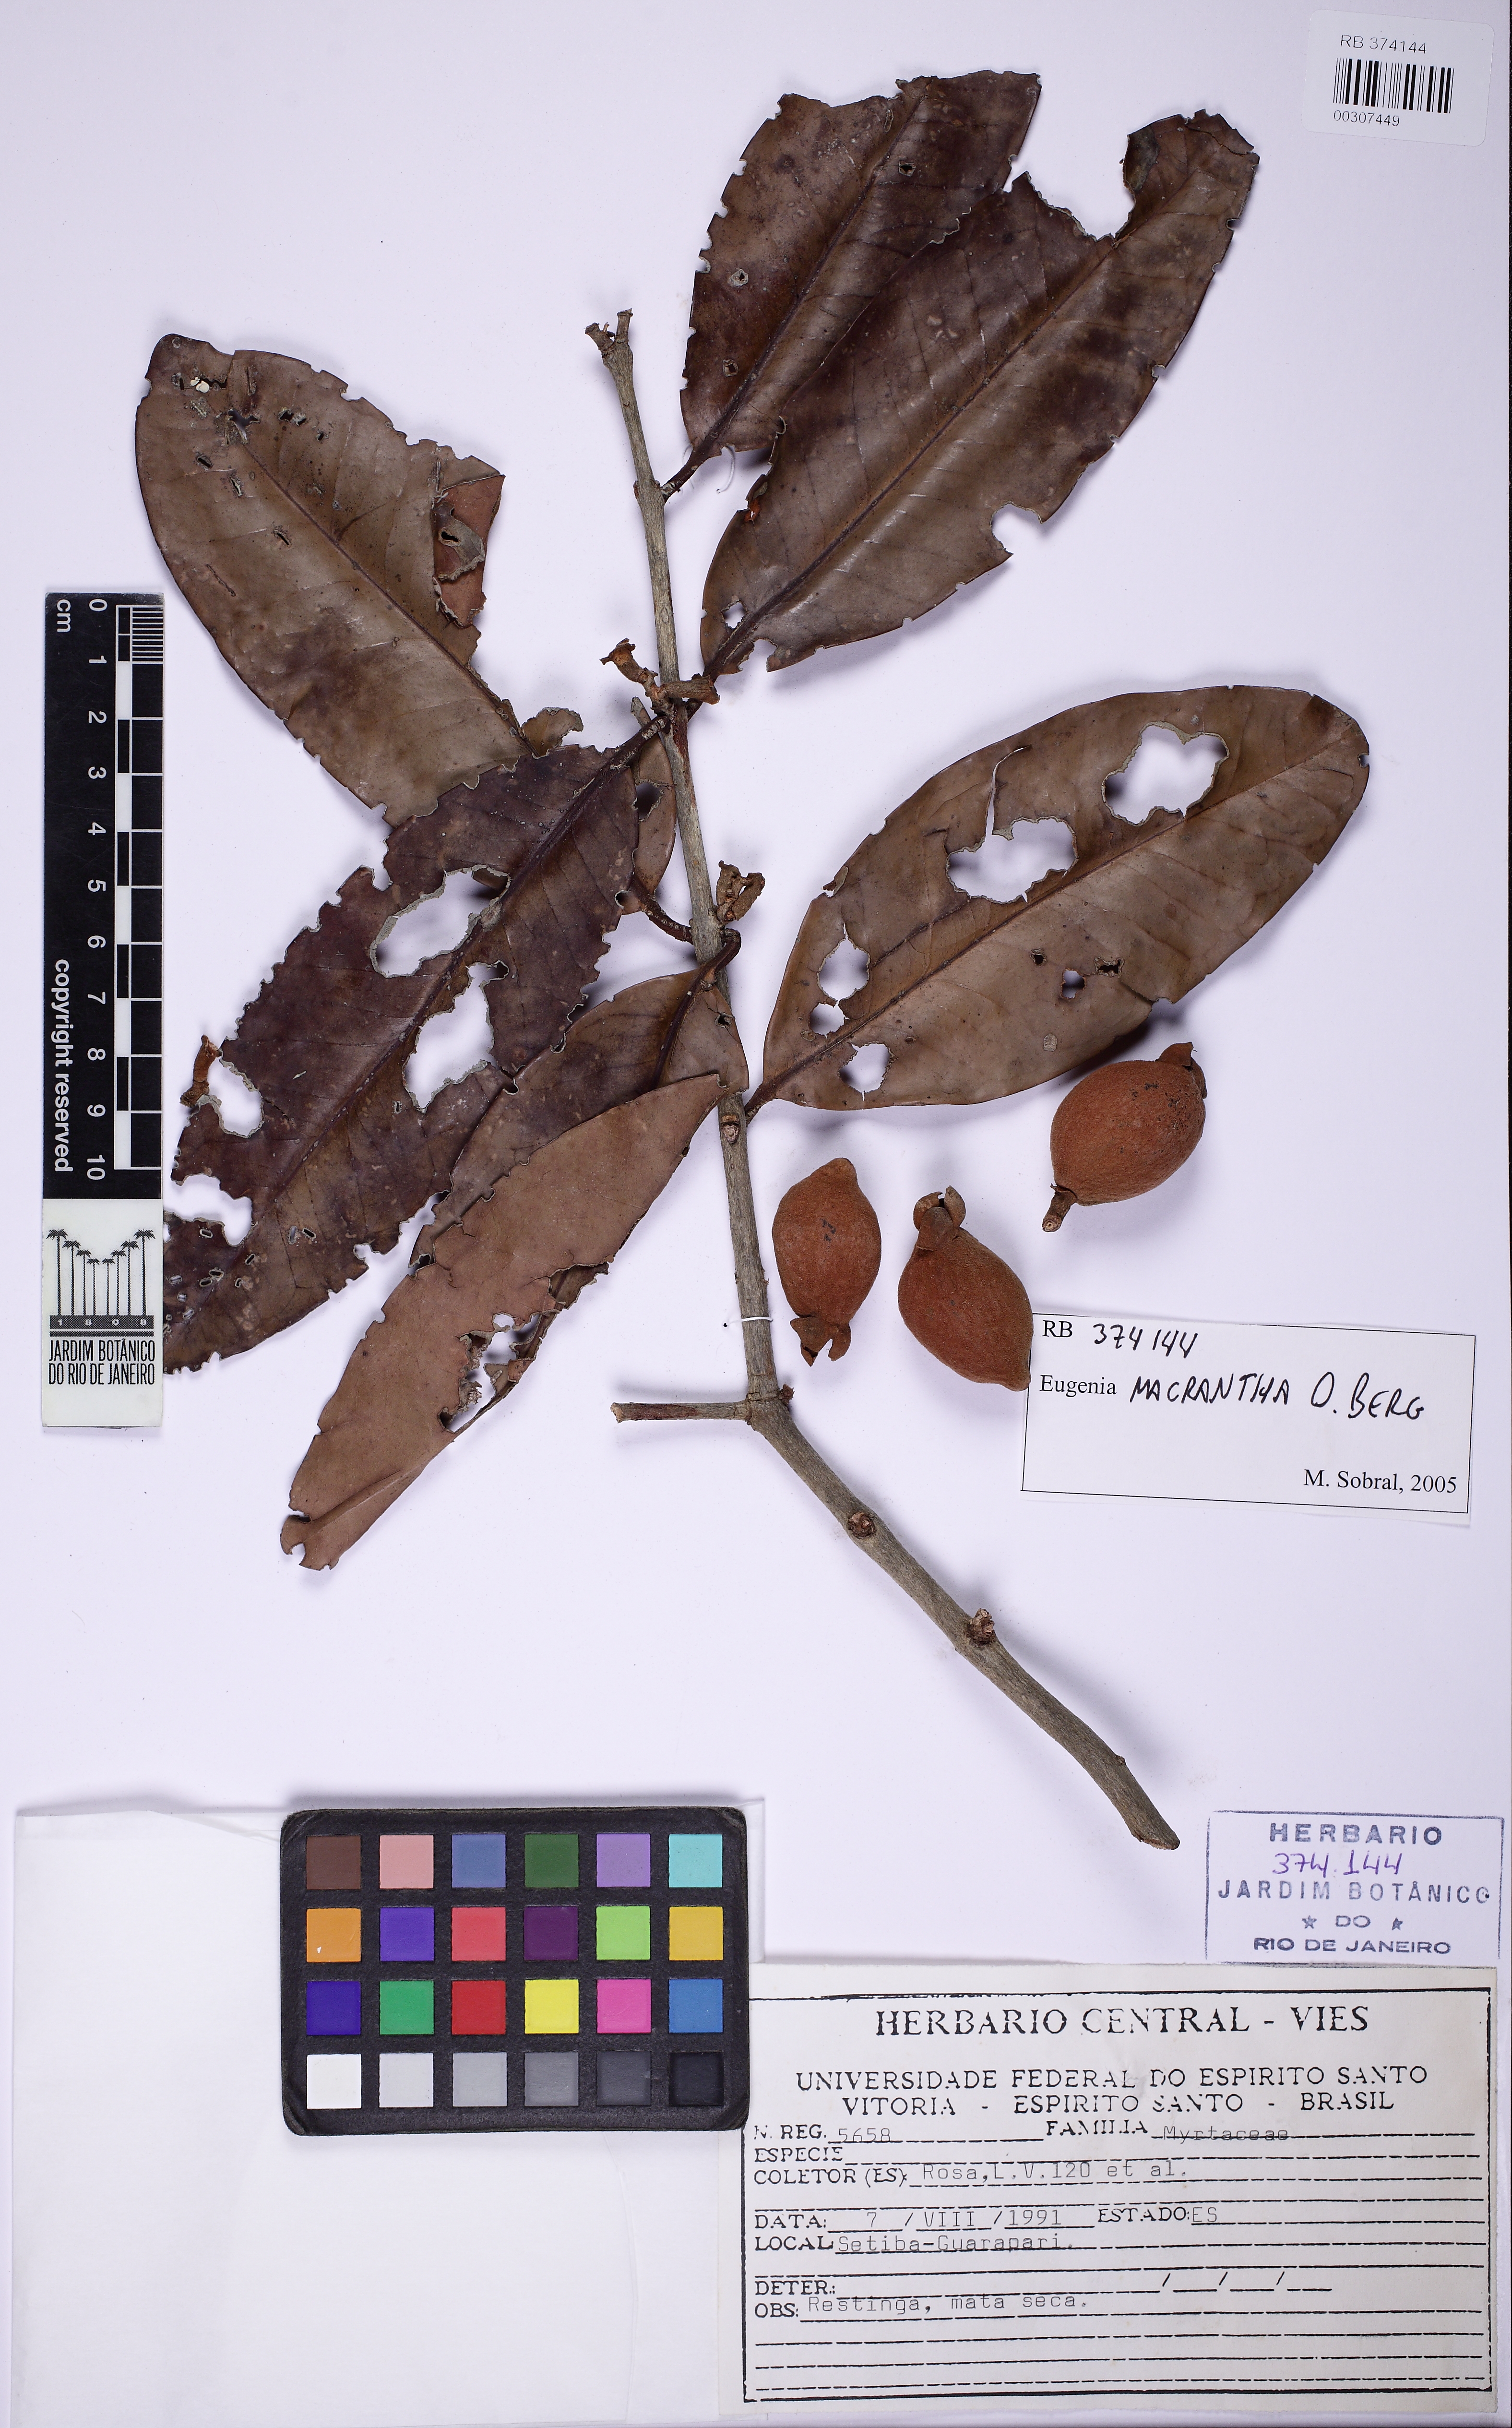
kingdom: Plantae
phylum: Tracheophyta
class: Magnoliopsida
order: Myrtales
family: Myrtaceae
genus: Eugenia
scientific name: Eugenia macrantha
